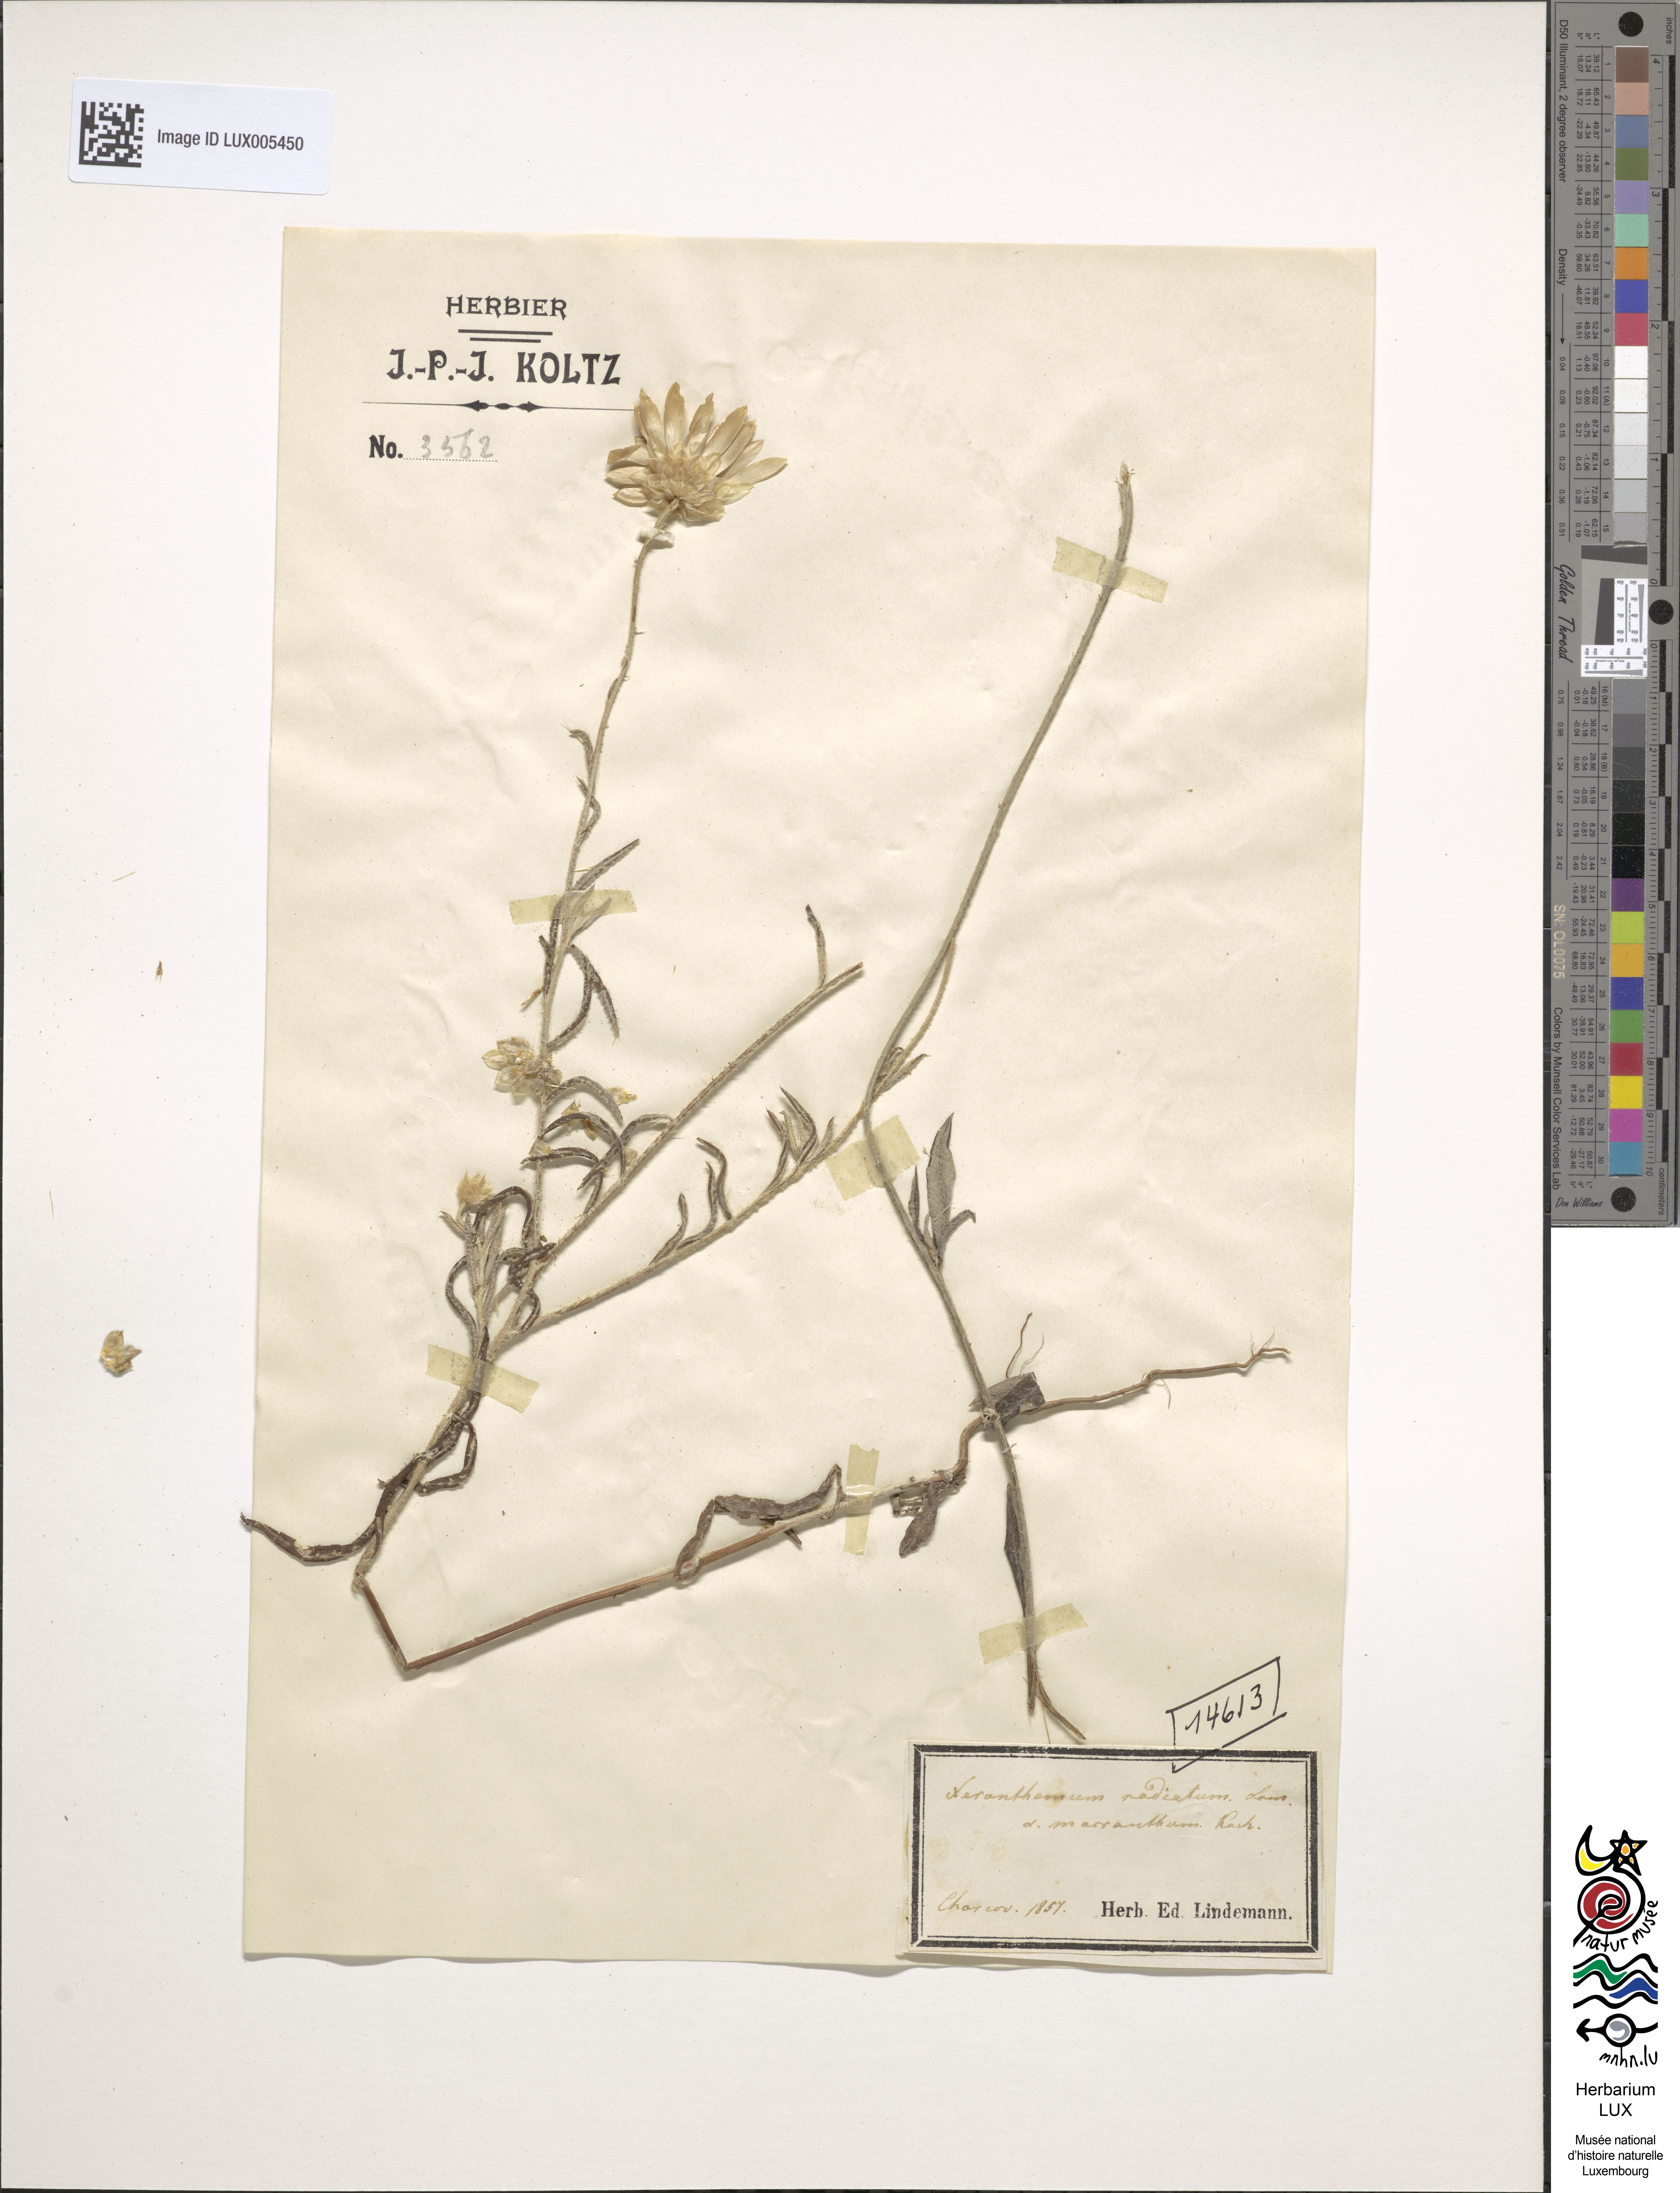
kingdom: Plantae
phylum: Tracheophyta
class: Magnoliopsida
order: Asterales
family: Asteraceae
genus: Xeranthemum
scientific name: Xeranthemum annuum
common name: Immortelle
